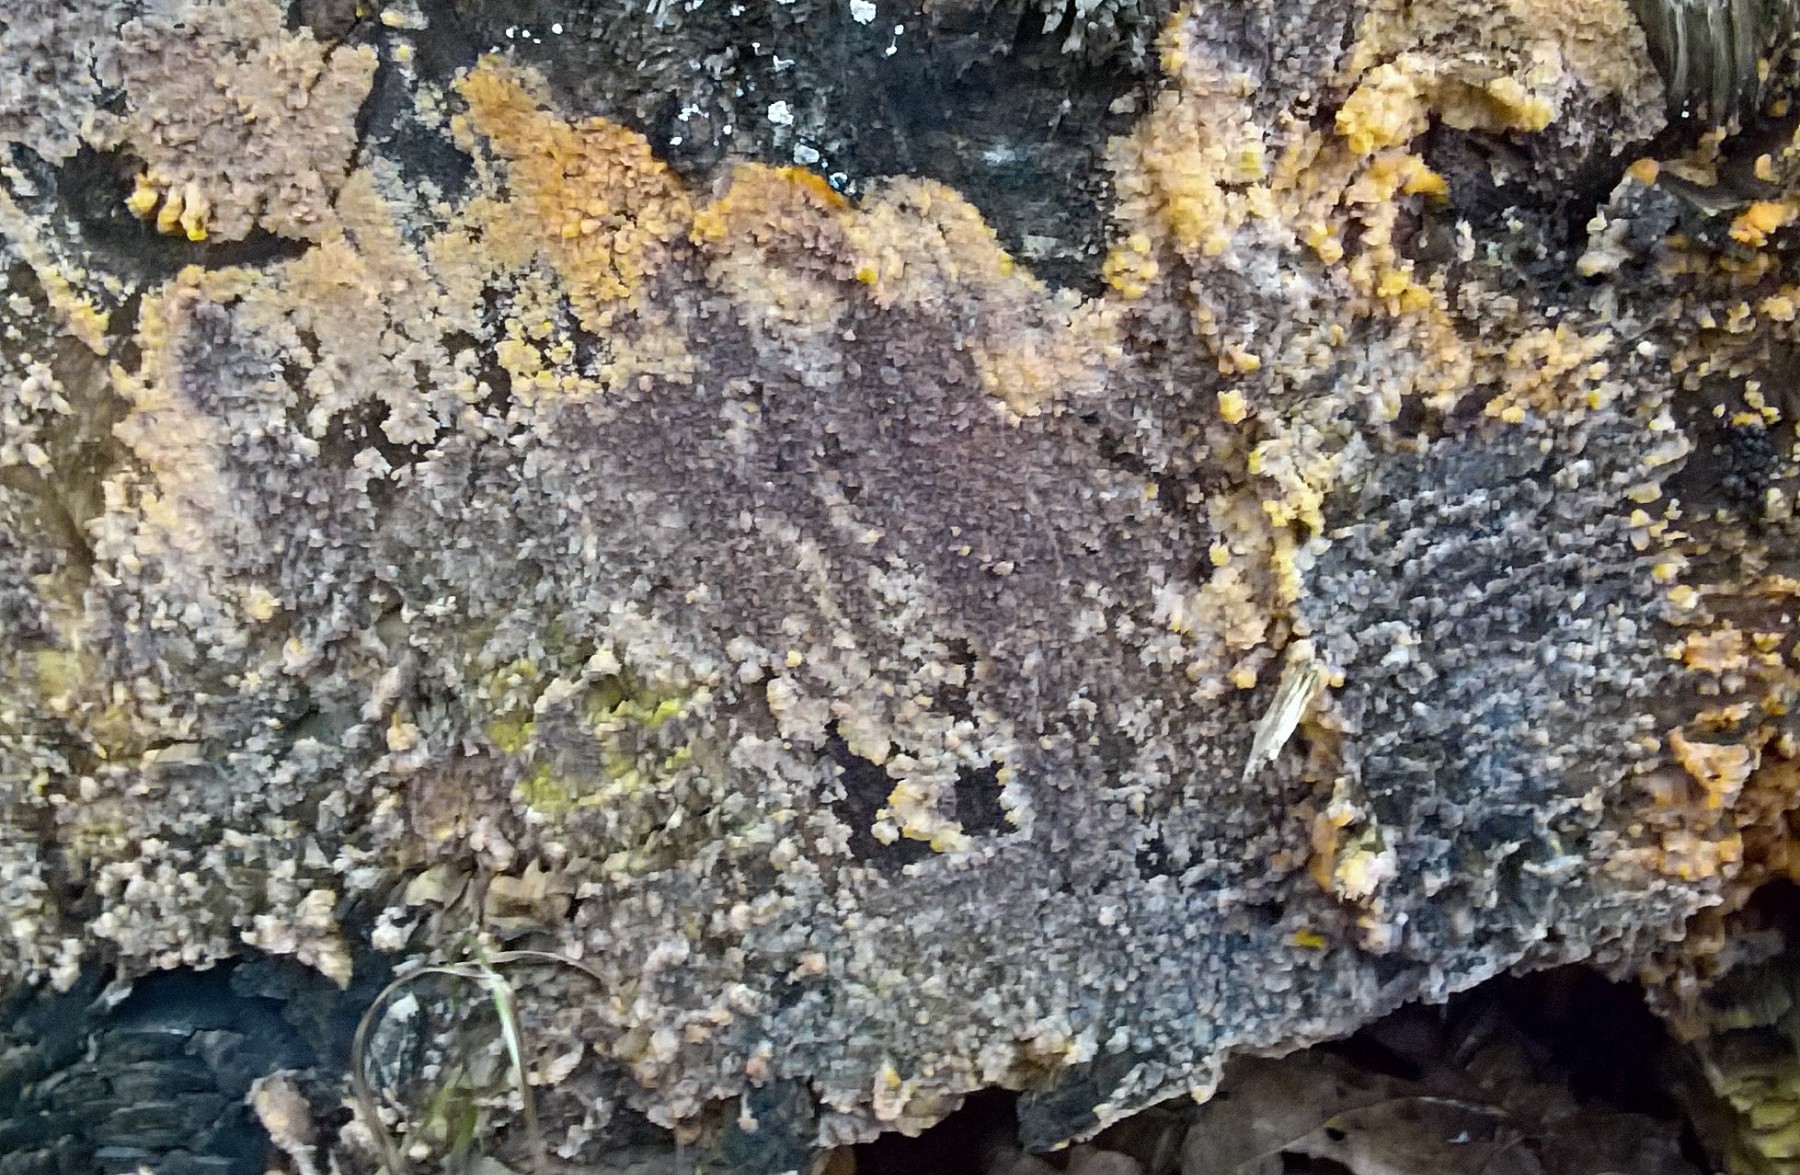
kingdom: Fungi
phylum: Basidiomycota
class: Agaricomycetes
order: Polyporales
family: Meruliaceae
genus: Phlebia
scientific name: Phlebia radiata
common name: stråle-åresvamp
